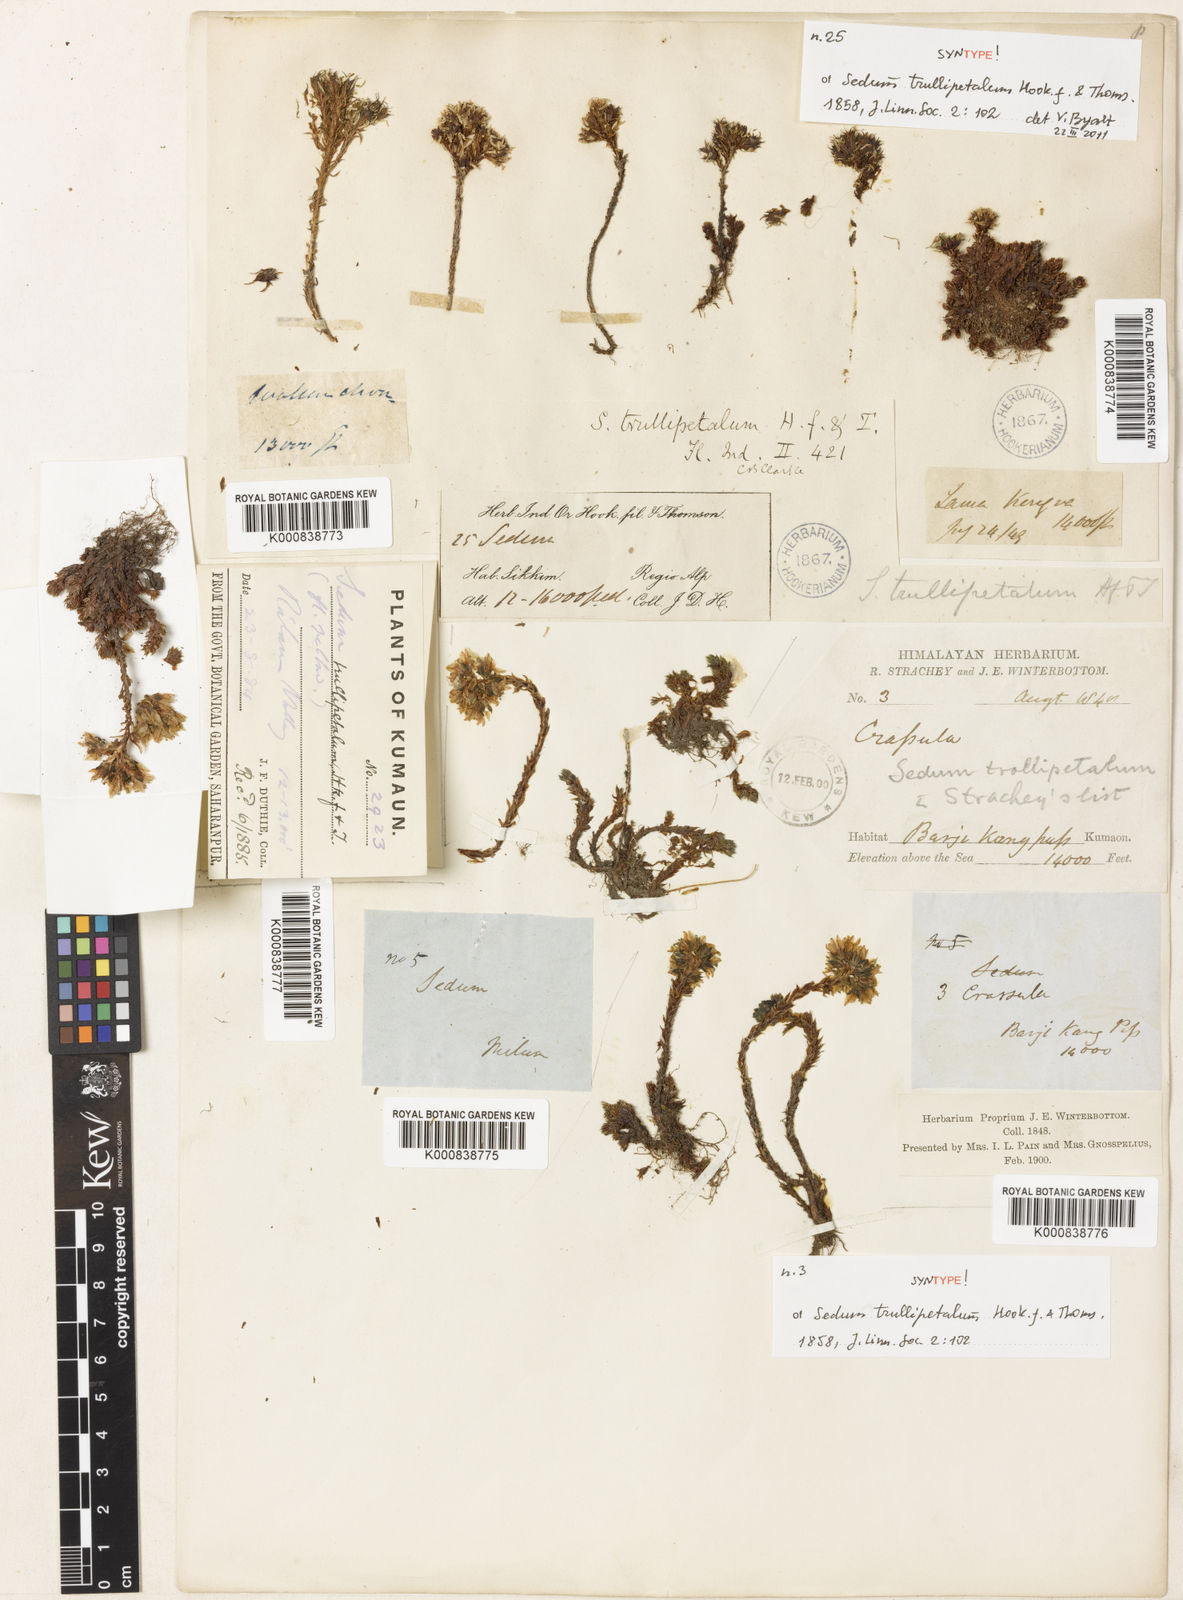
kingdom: Plantae
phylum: Tracheophyta
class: Magnoliopsida
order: Saxifragales
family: Crassulaceae
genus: Sedum
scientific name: Sedum trullipetalum
